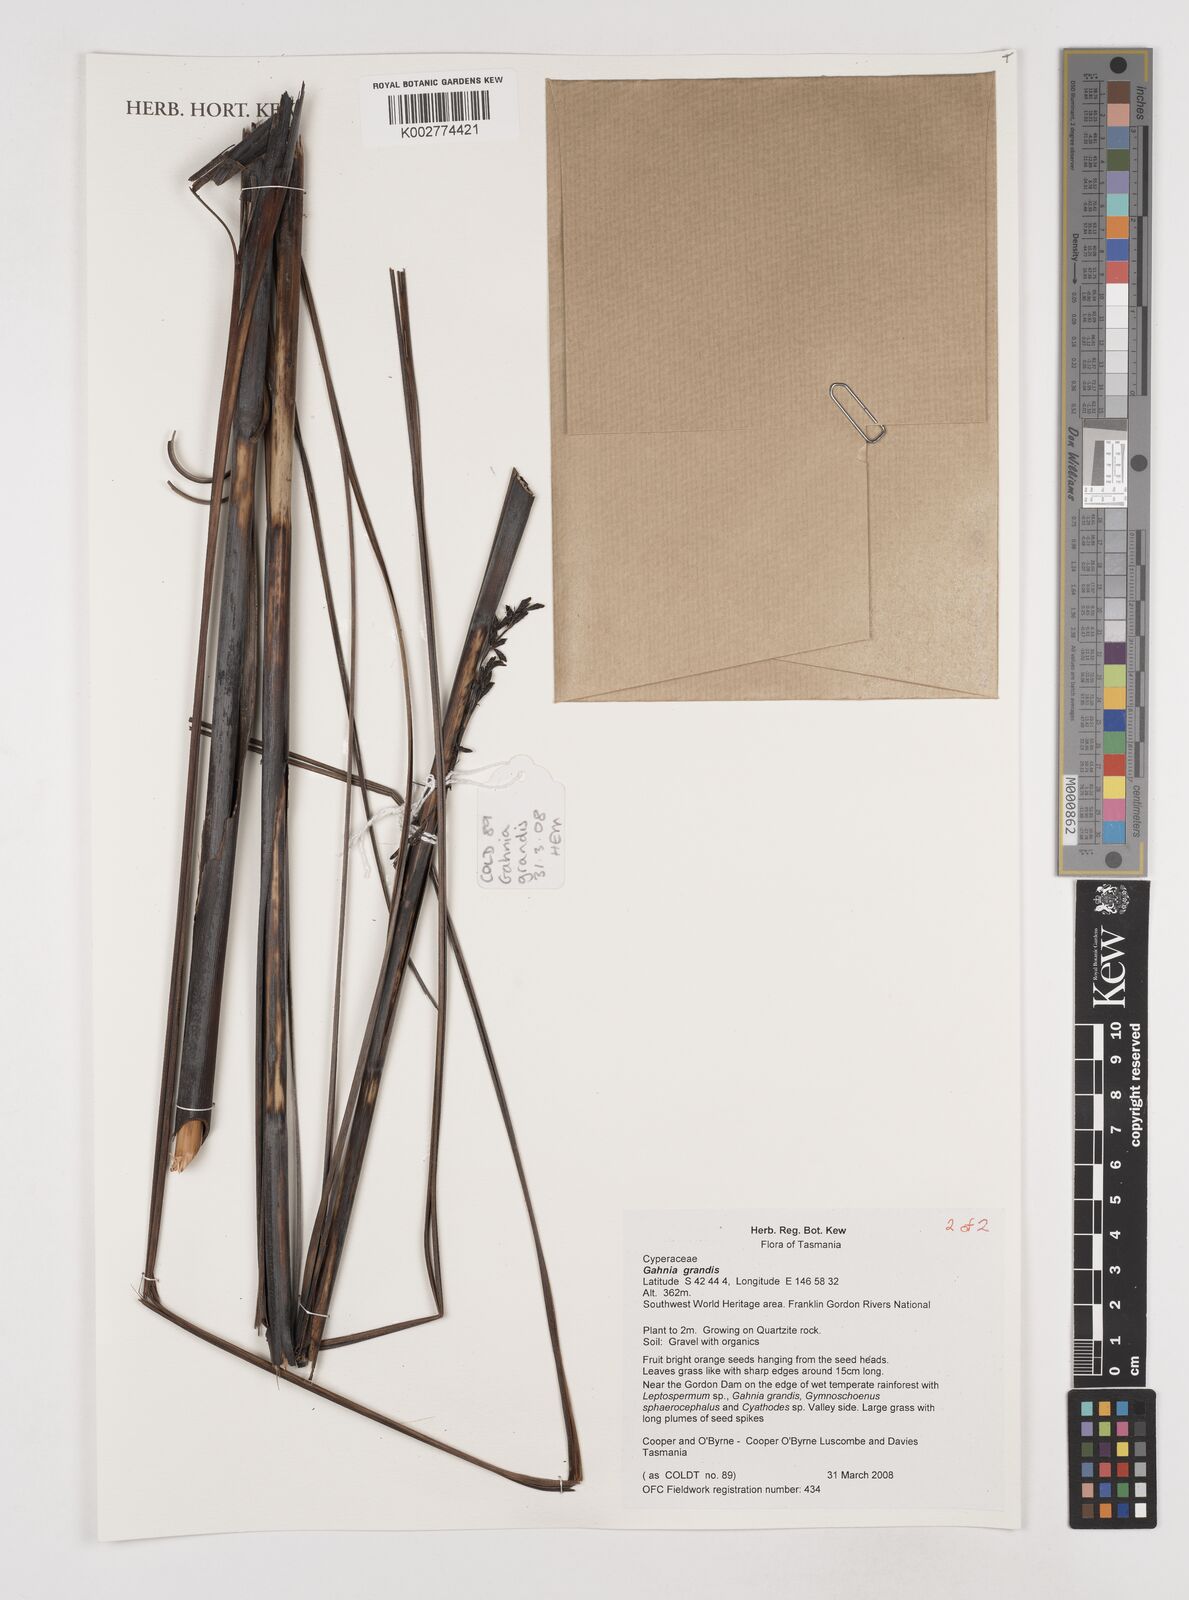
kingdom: Plantae
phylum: Tracheophyta
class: Liliopsida
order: Poales
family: Cyperaceae
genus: Gahnia
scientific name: Gahnia grandis
